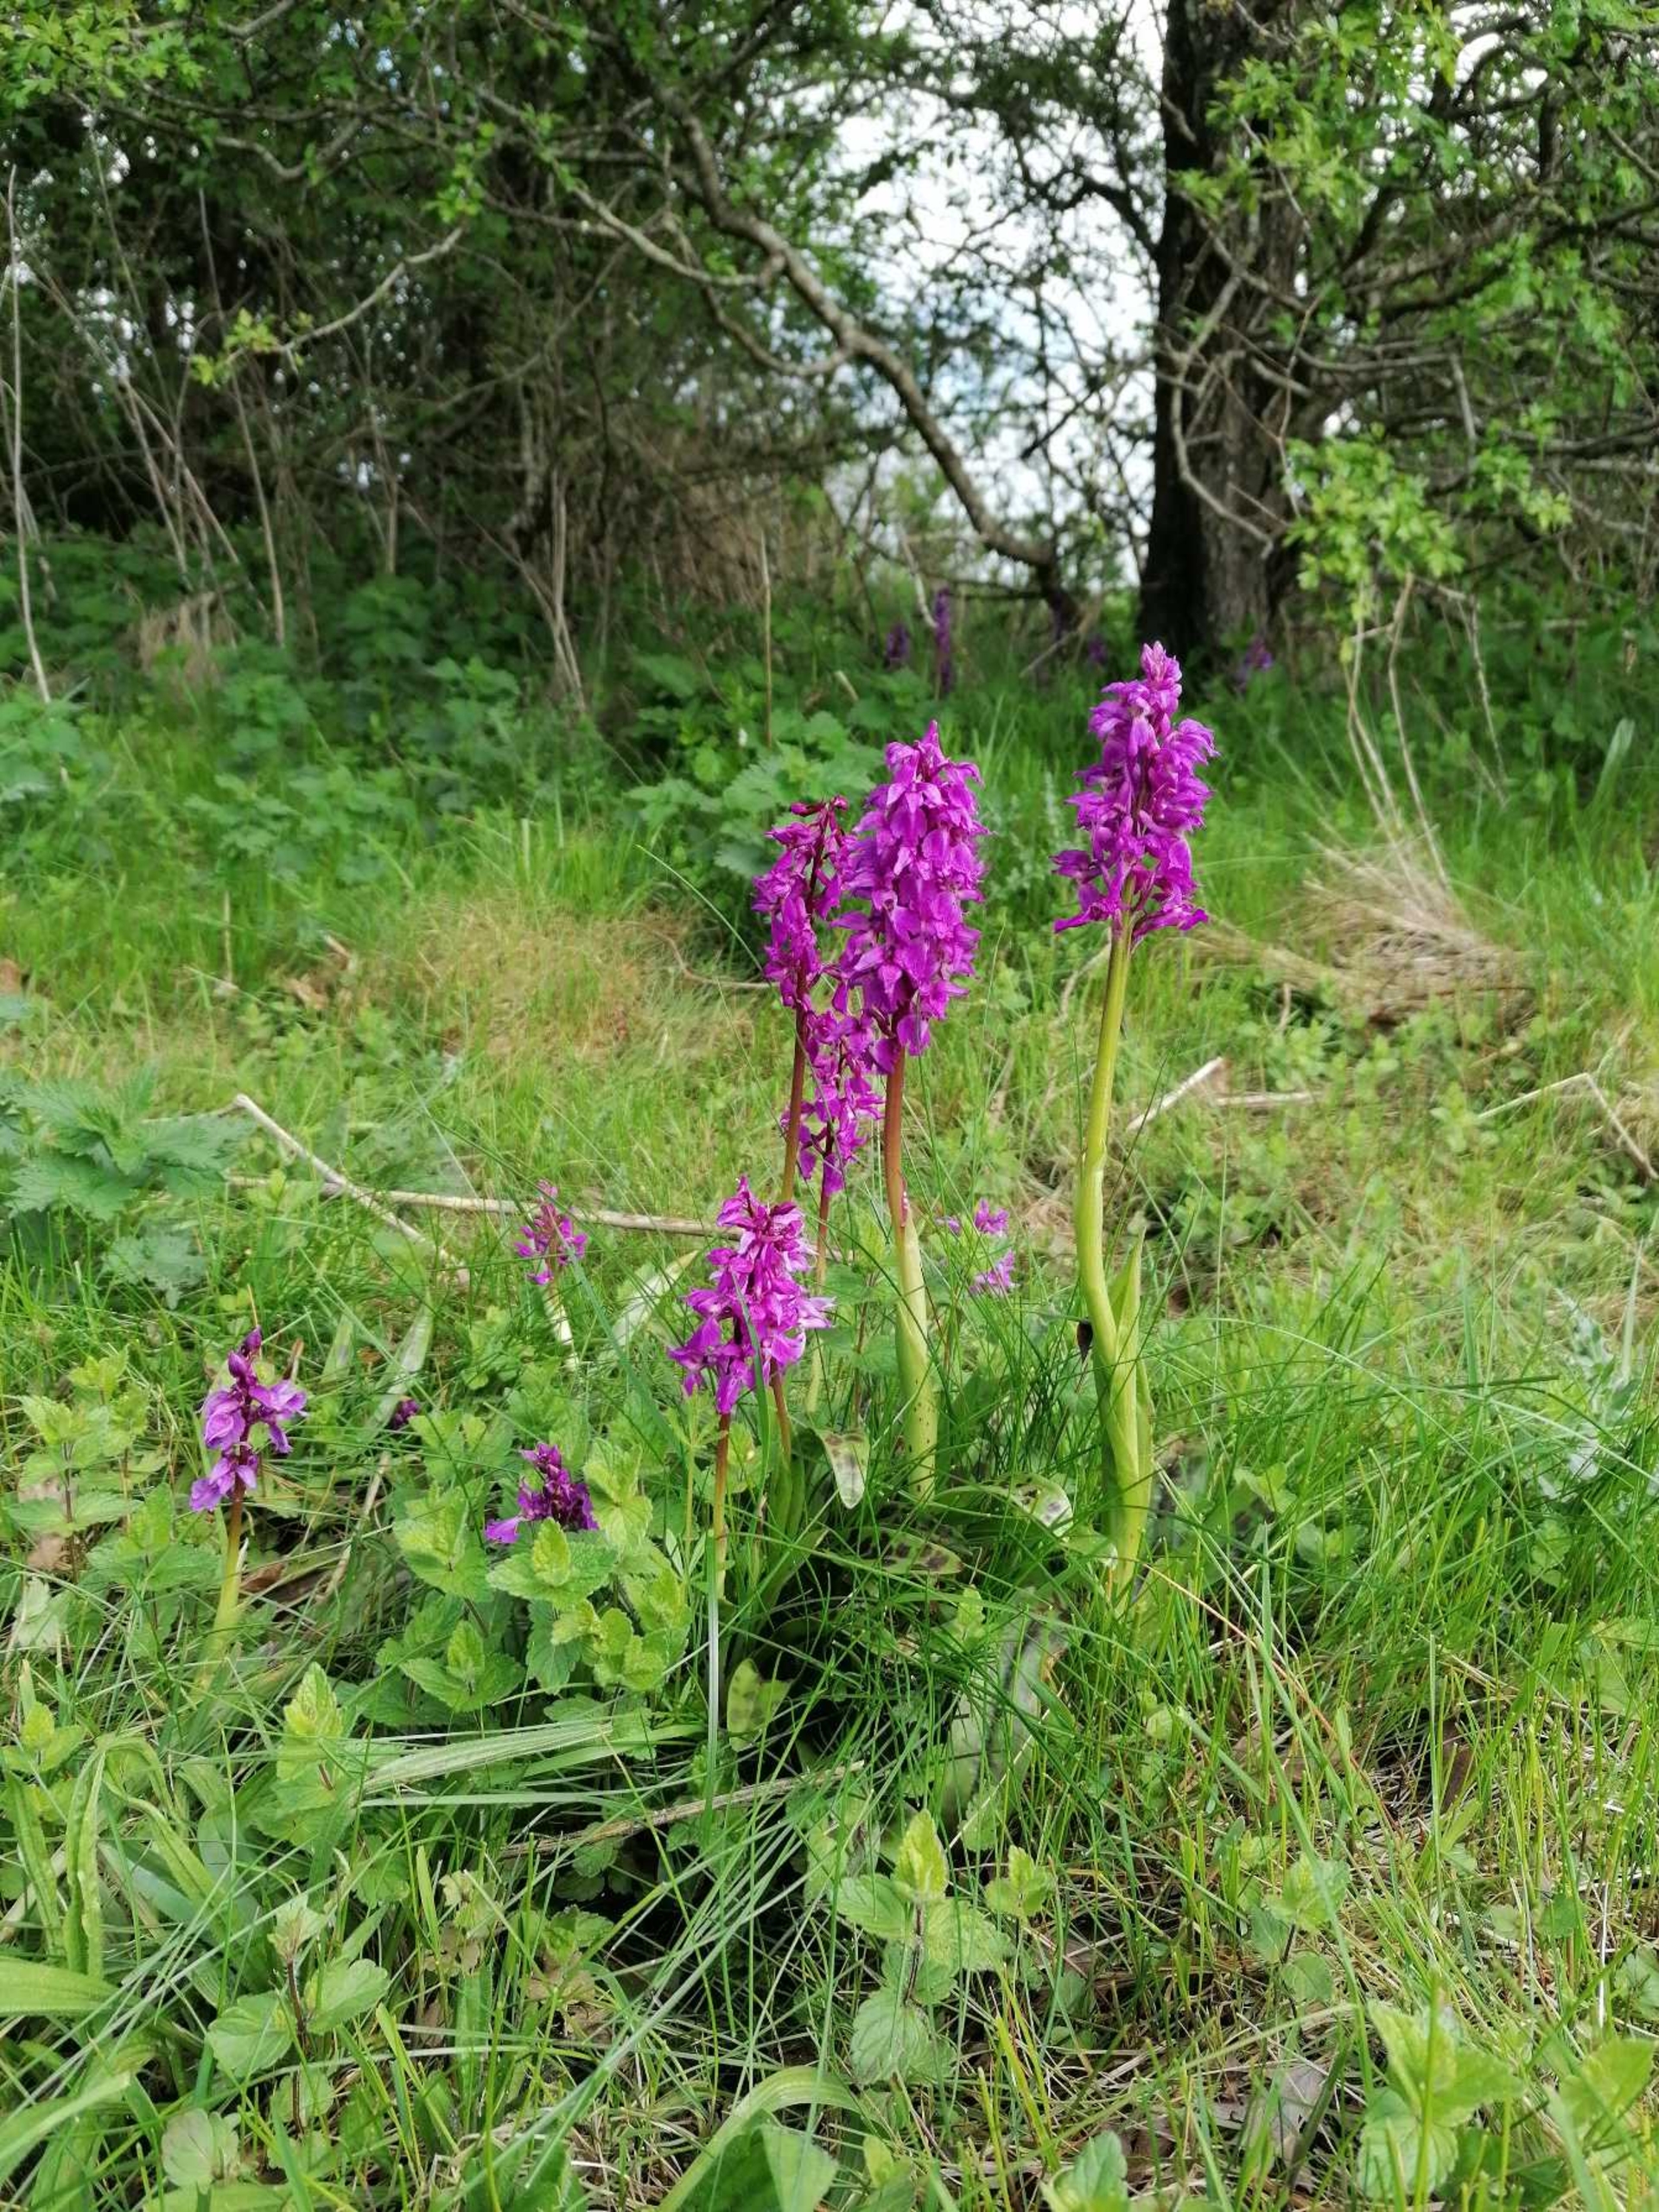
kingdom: Plantae
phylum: Tracheophyta
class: Liliopsida
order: Asparagales
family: Orchidaceae
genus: Orchis
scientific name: Orchis mascula
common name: Tyndakset gøgeurt
